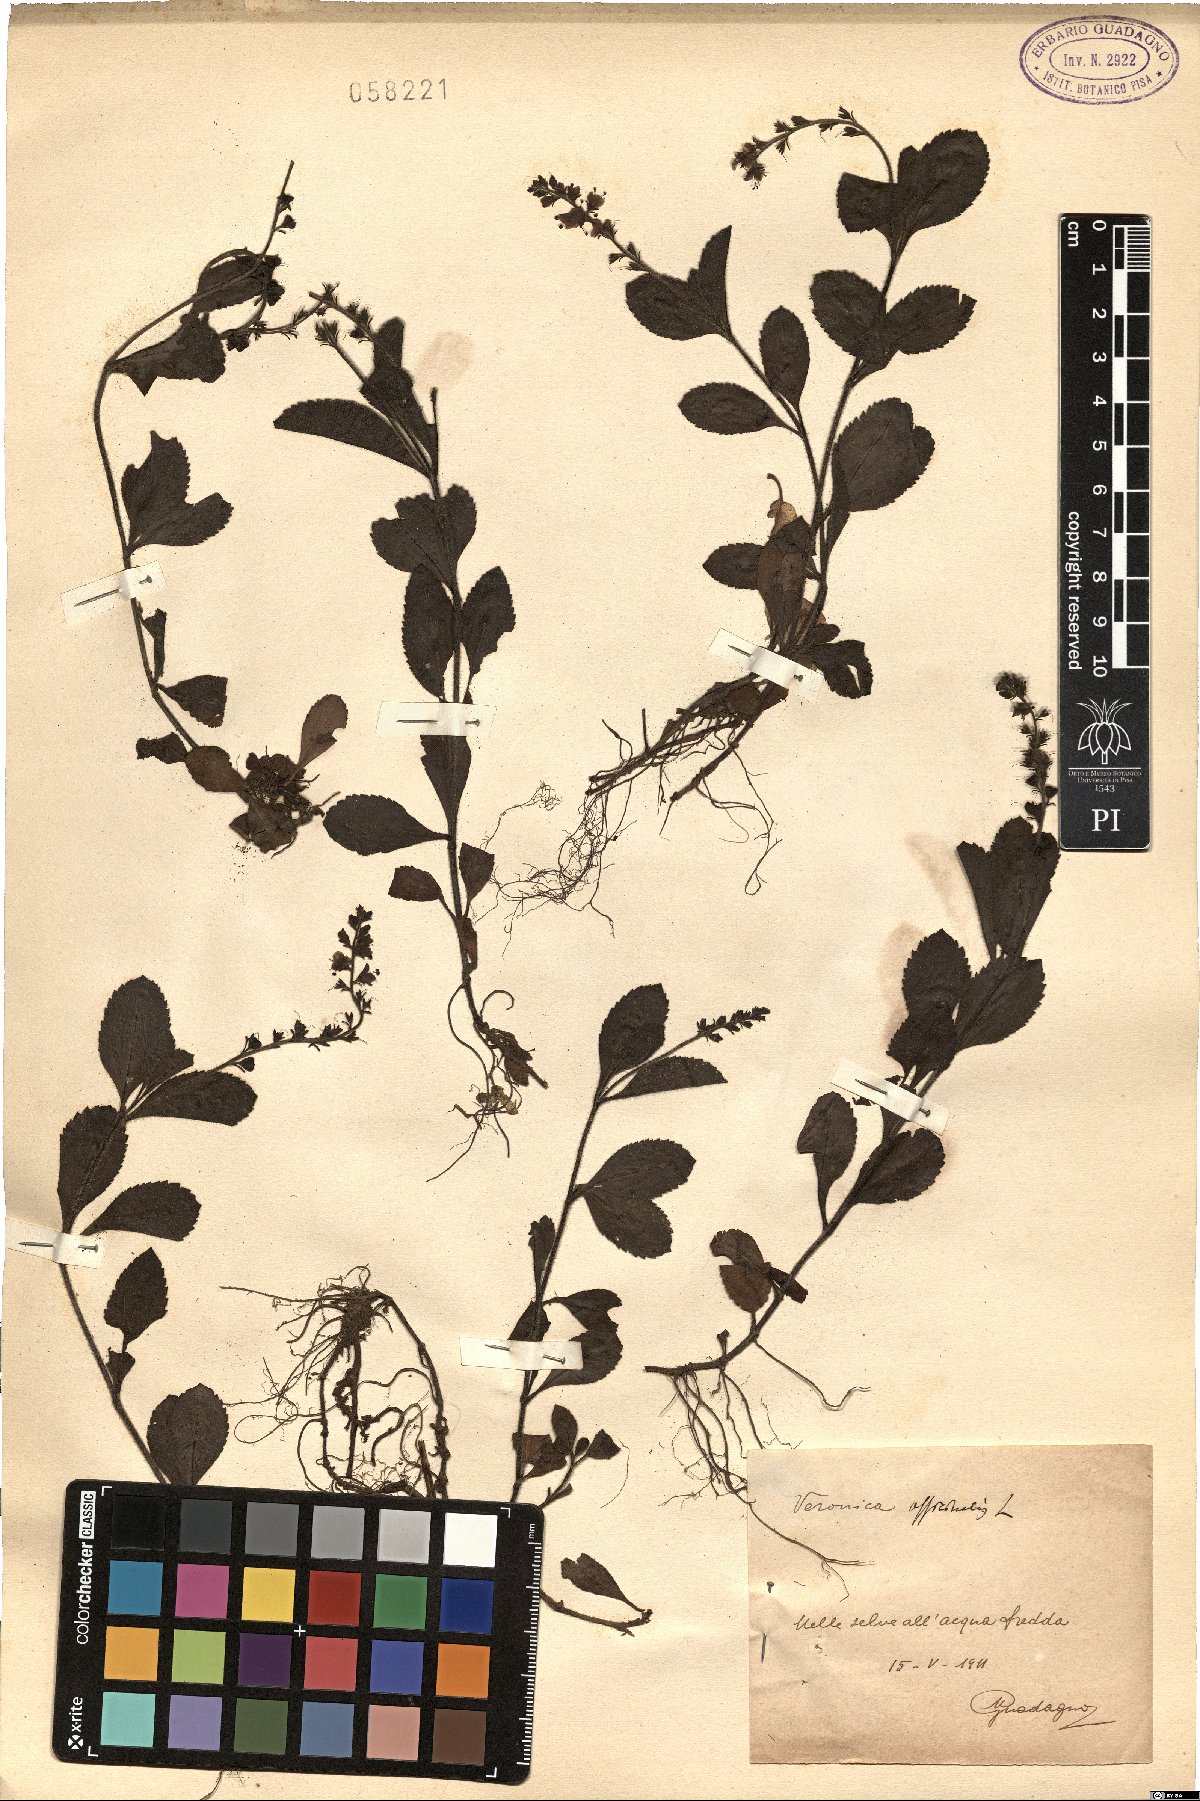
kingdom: Plantae
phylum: Tracheophyta
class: Magnoliopsida
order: Lamiales
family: Plantaginaceae
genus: Veronica
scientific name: Veronica officinalis
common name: Common speedwell
